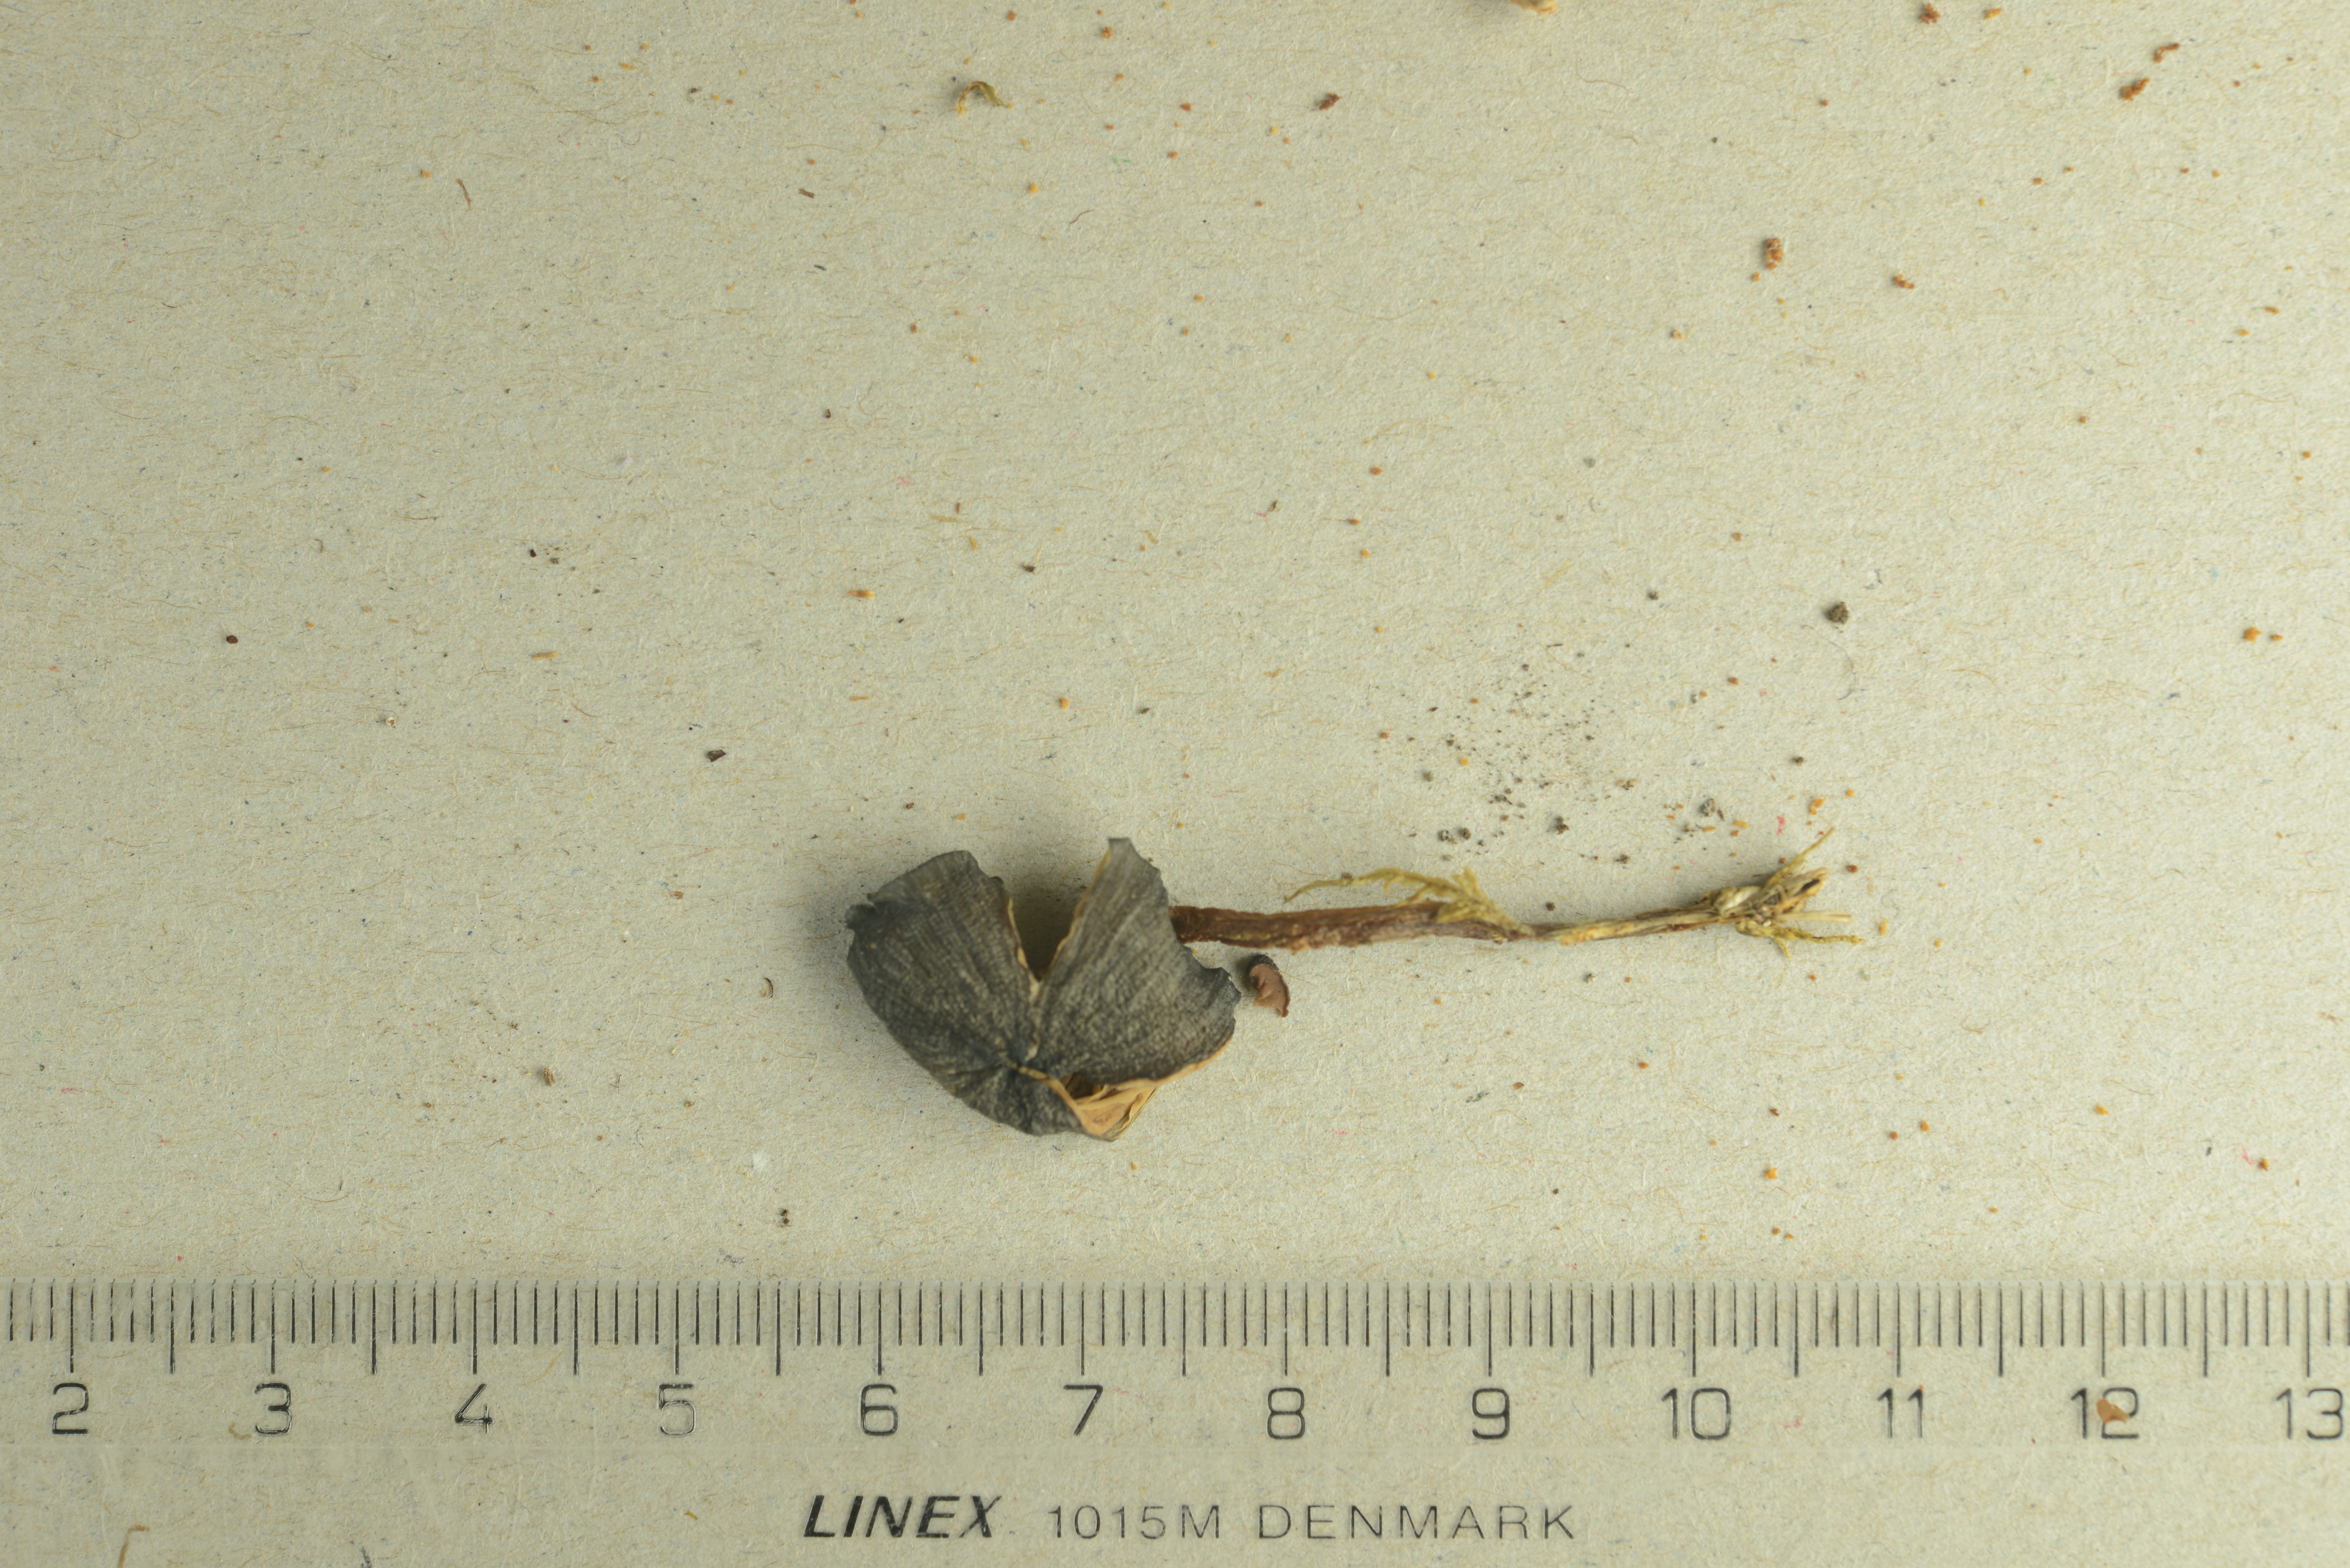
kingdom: Fungi
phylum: Basidiomycota
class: Agaricomycetes
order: Agaricales
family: Entolomataceae
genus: Entoloma
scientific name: Entoloma violaceoviride
